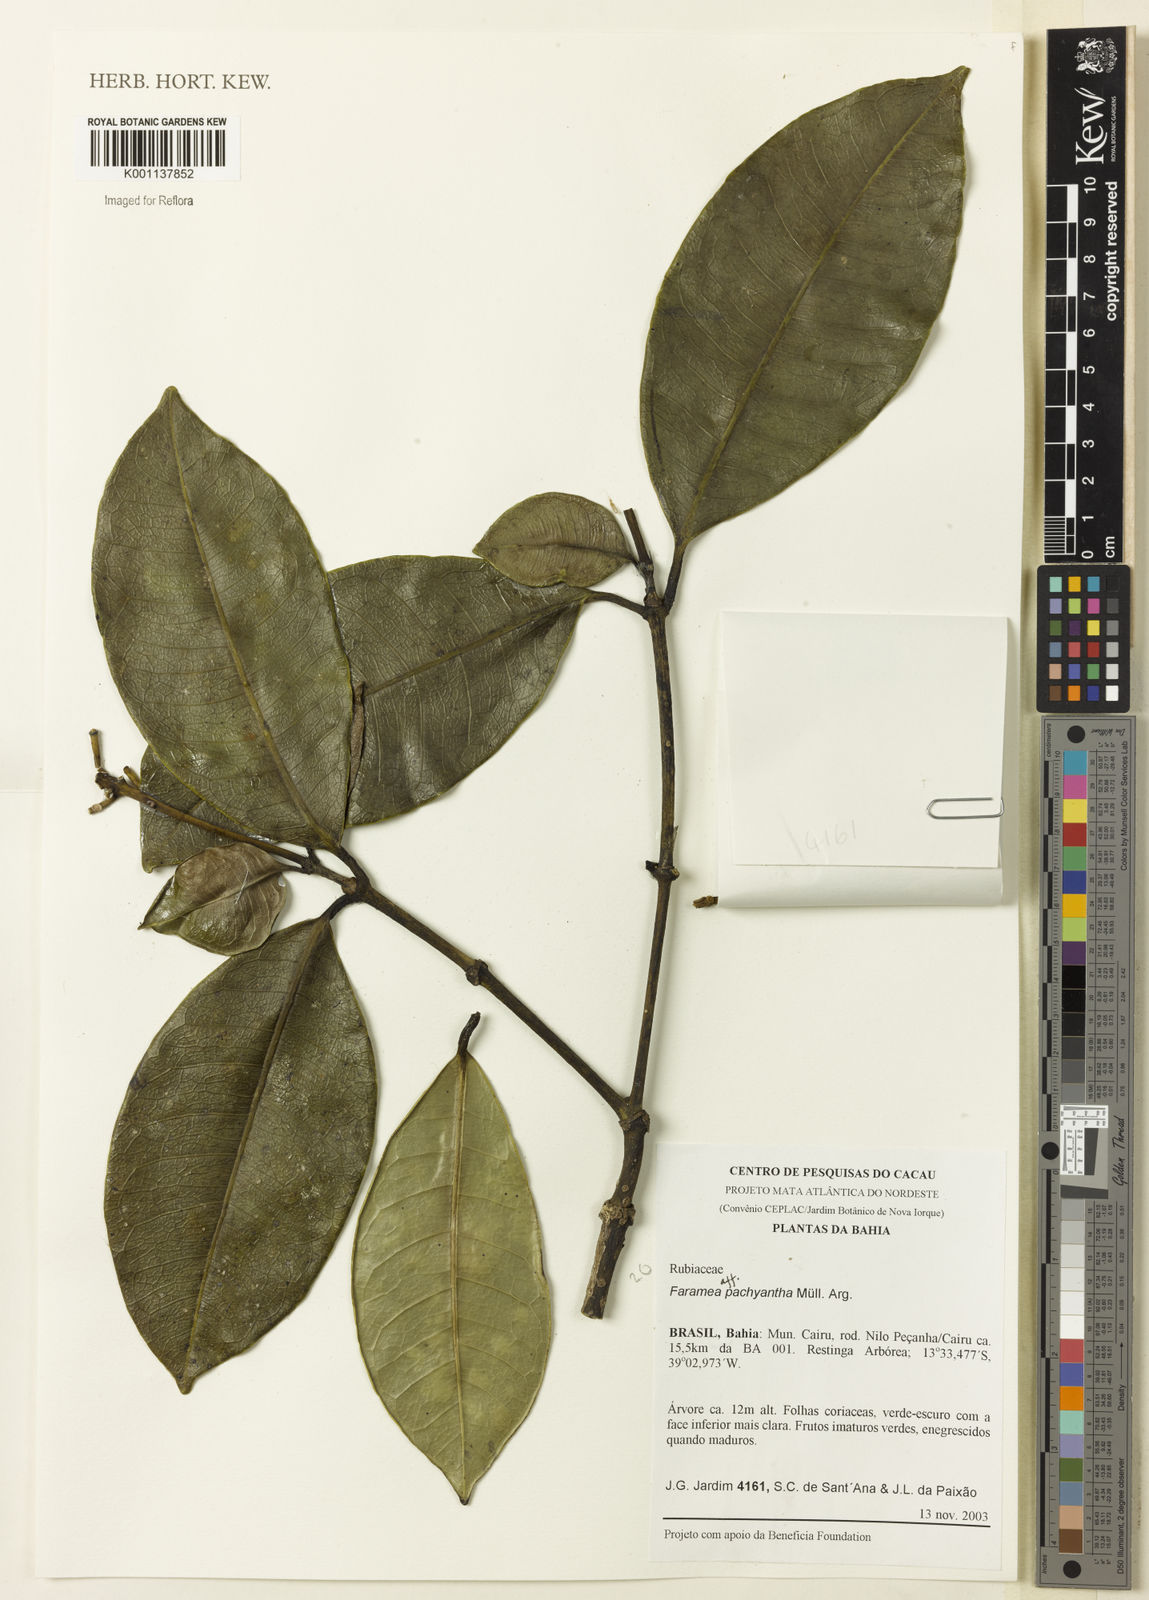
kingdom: Plantae
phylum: Tracheophyta
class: Magnoliopsida
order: Gentianales
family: Rubiaceae
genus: Faramea
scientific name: Faramea
